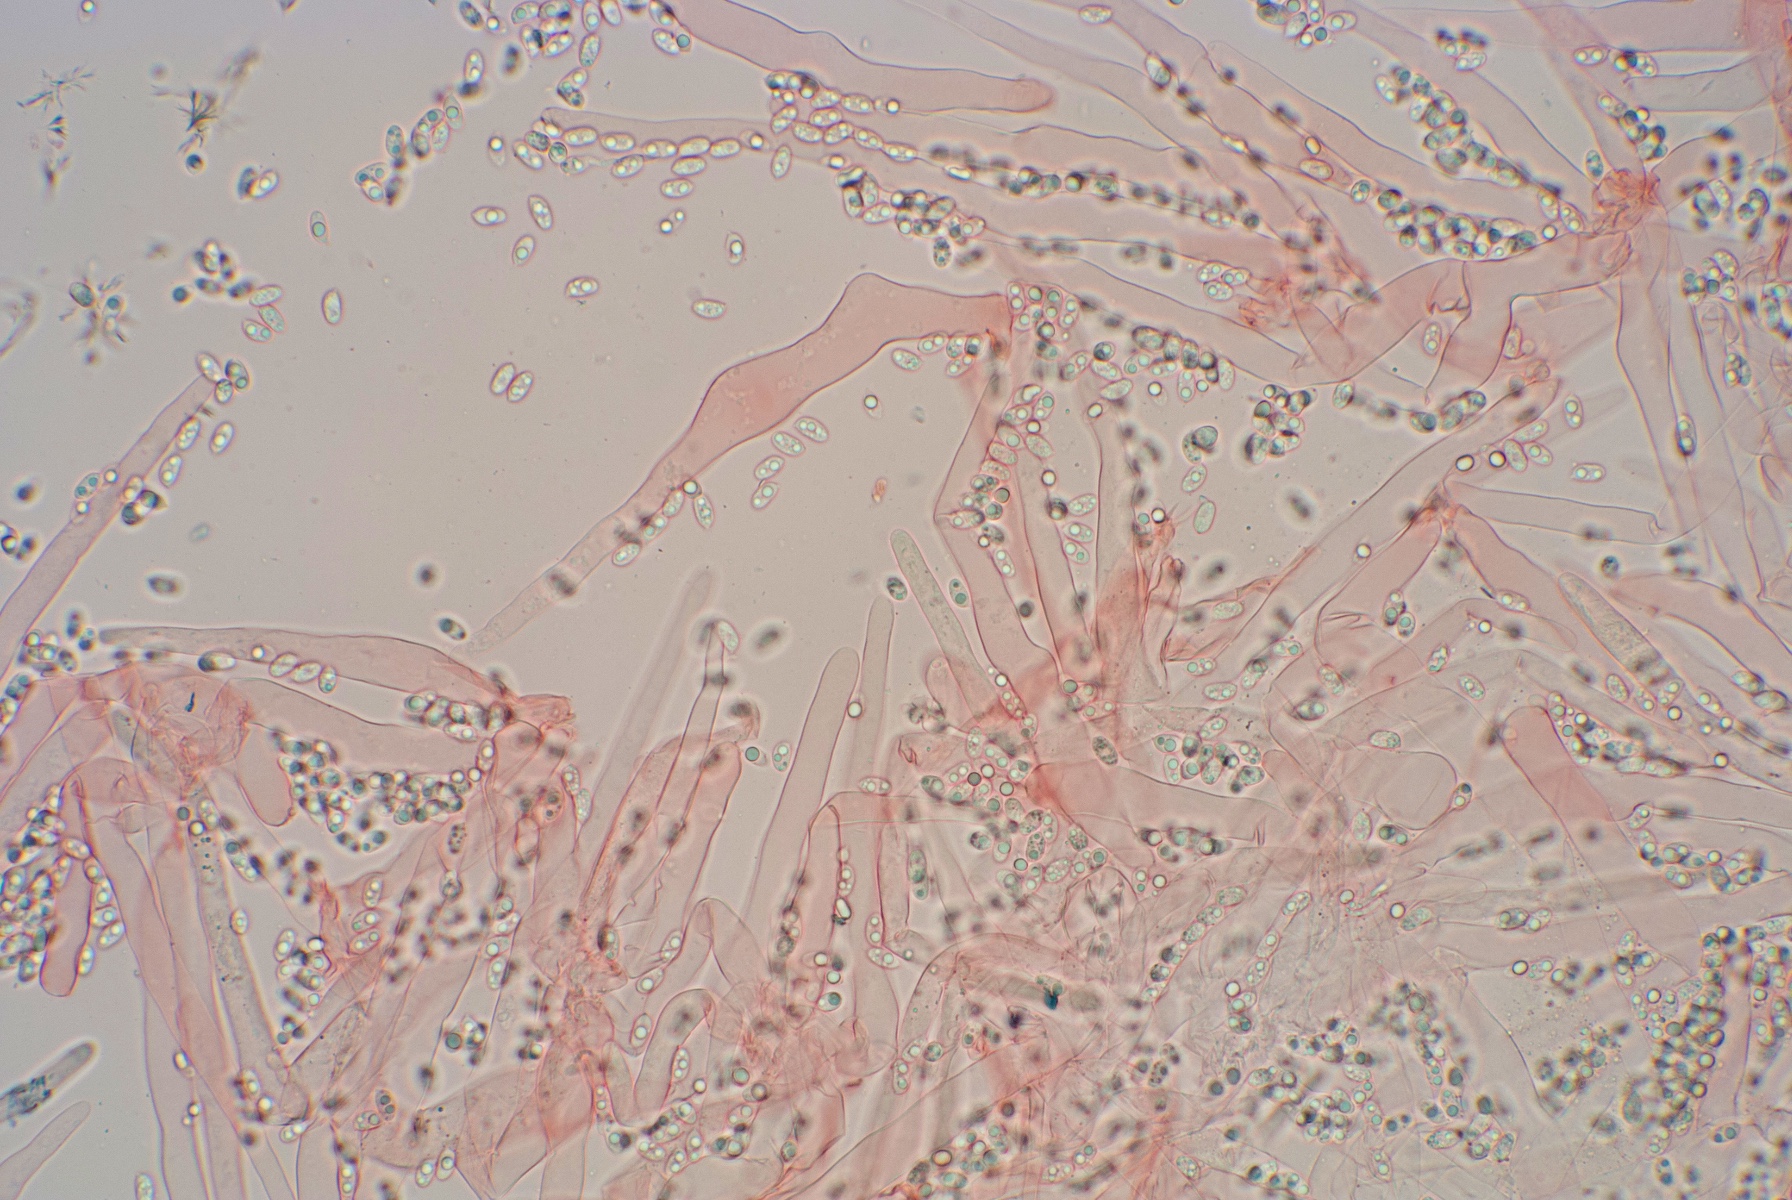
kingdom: Fungi
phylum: Basidiomycota
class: Agaricomycetes
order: Agaricales
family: Mycenaceae
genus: Mycena
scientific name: Mycena amicta
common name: iris-huesvamp
